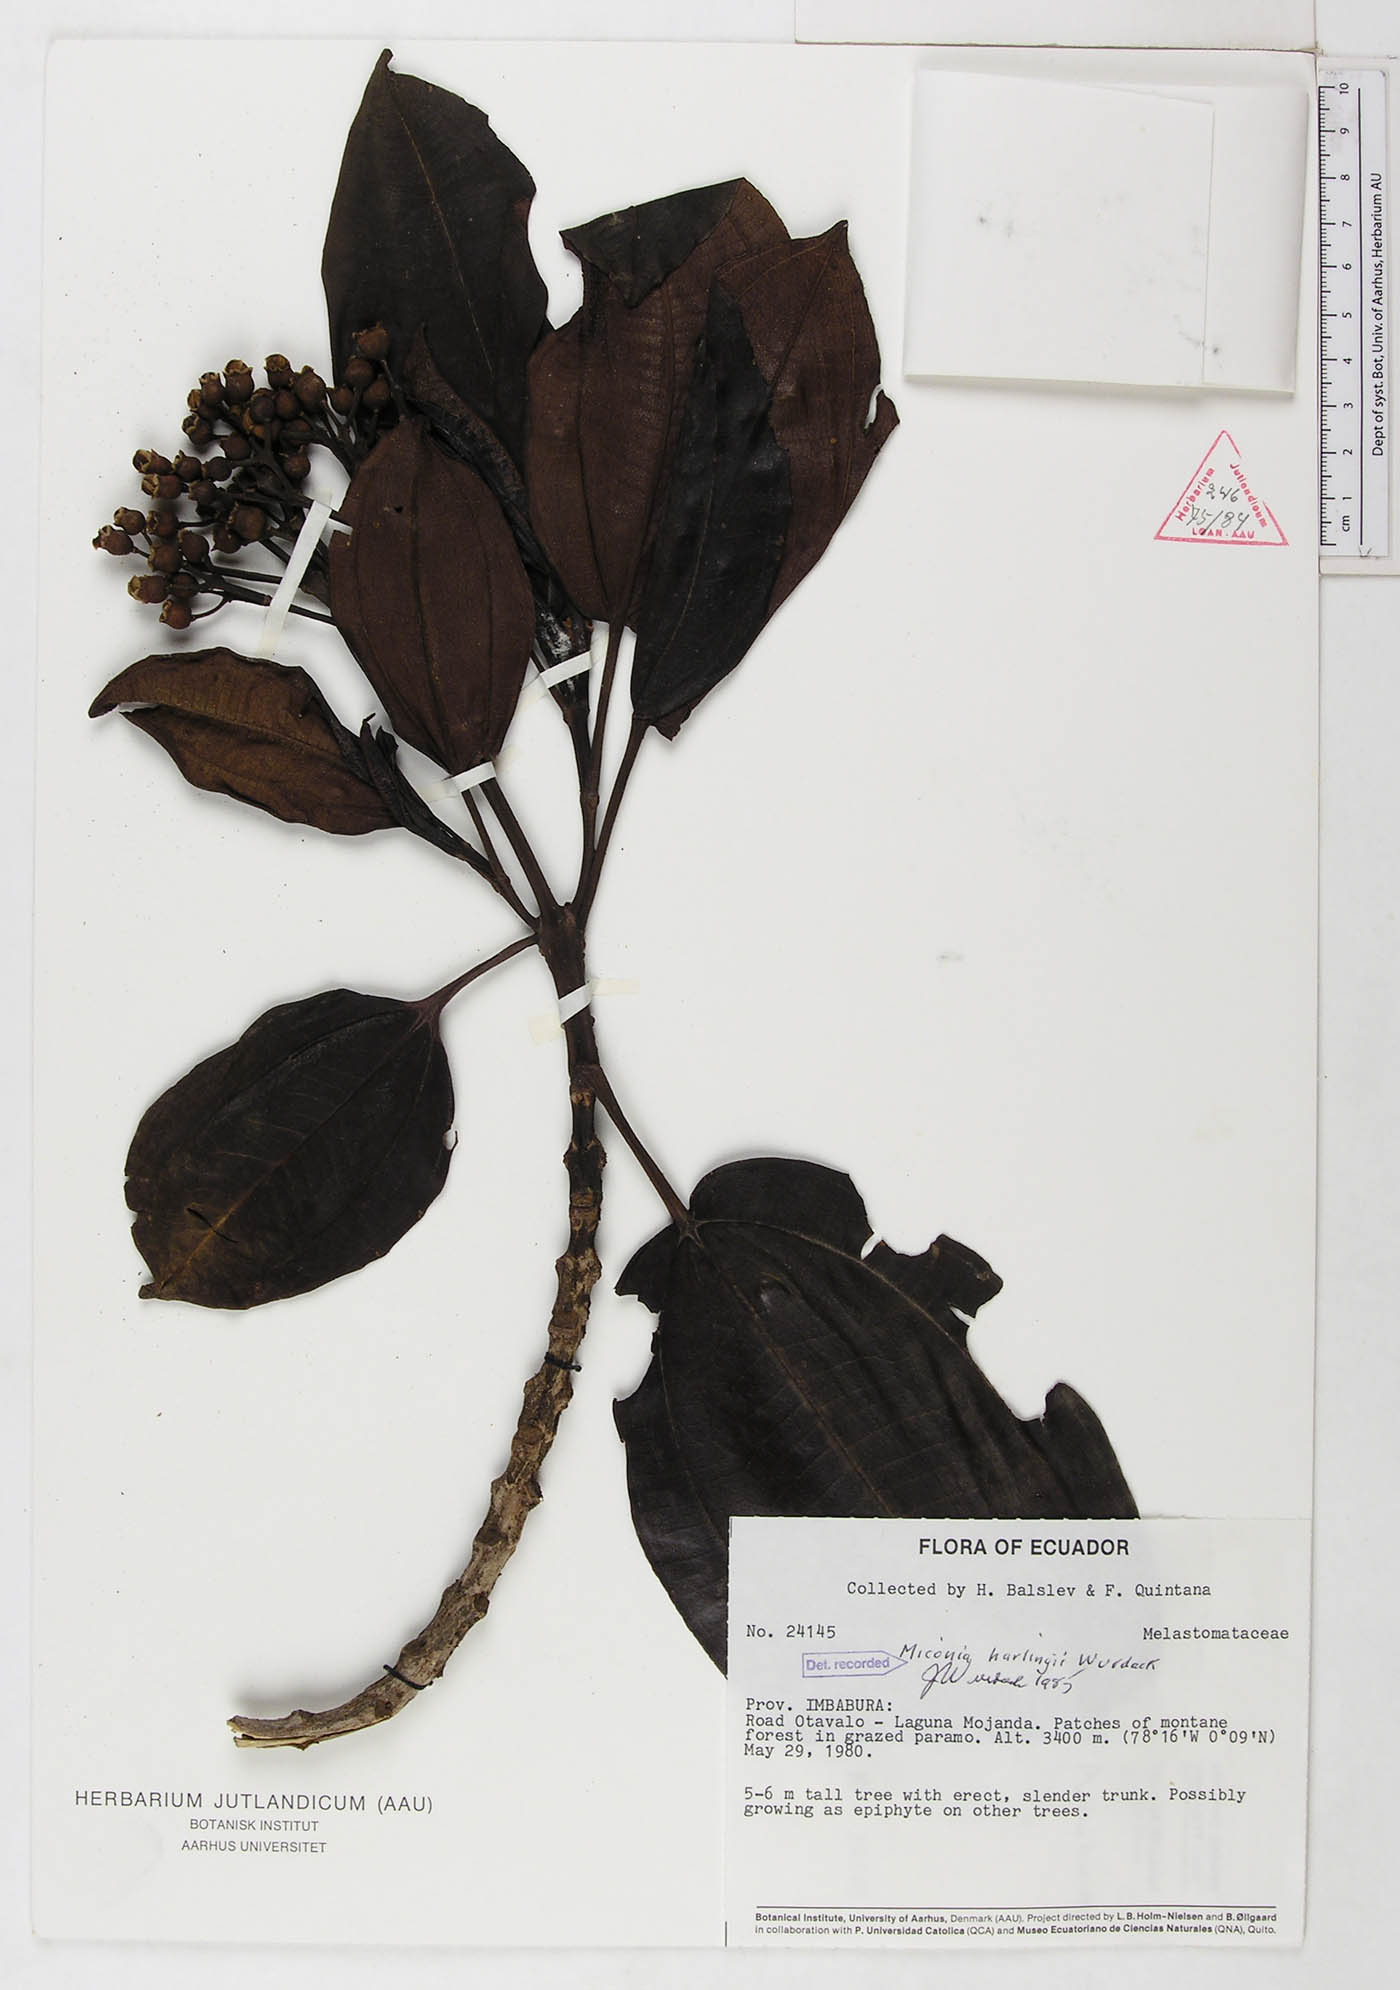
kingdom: Plantae
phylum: Tracheophyta
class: Magnoliopsida
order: Myrtales
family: Melastomataceae
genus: Miconia
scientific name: Miconia harlingii
